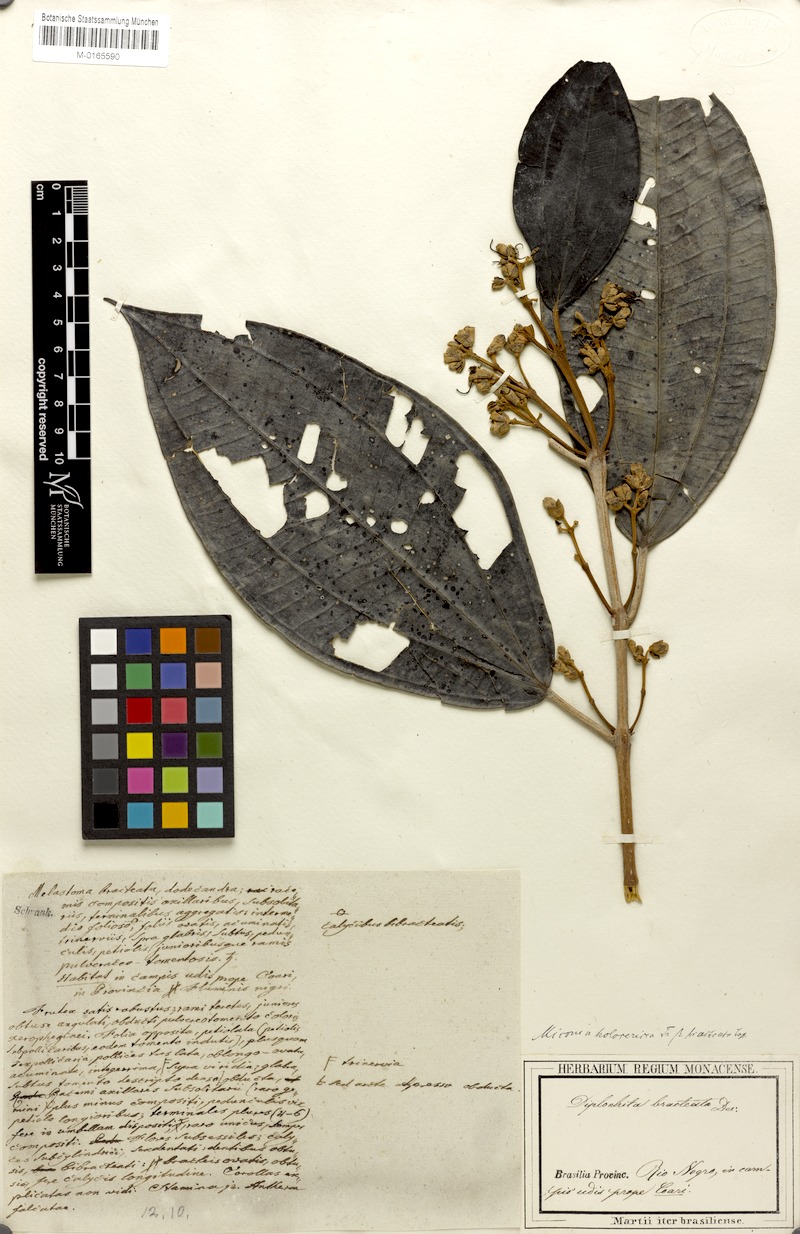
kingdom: Plantae
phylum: Tracheophyta
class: Magnoliopsida
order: Myrtales
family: Melastomataceae
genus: Miconia
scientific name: Miconia holosericea
